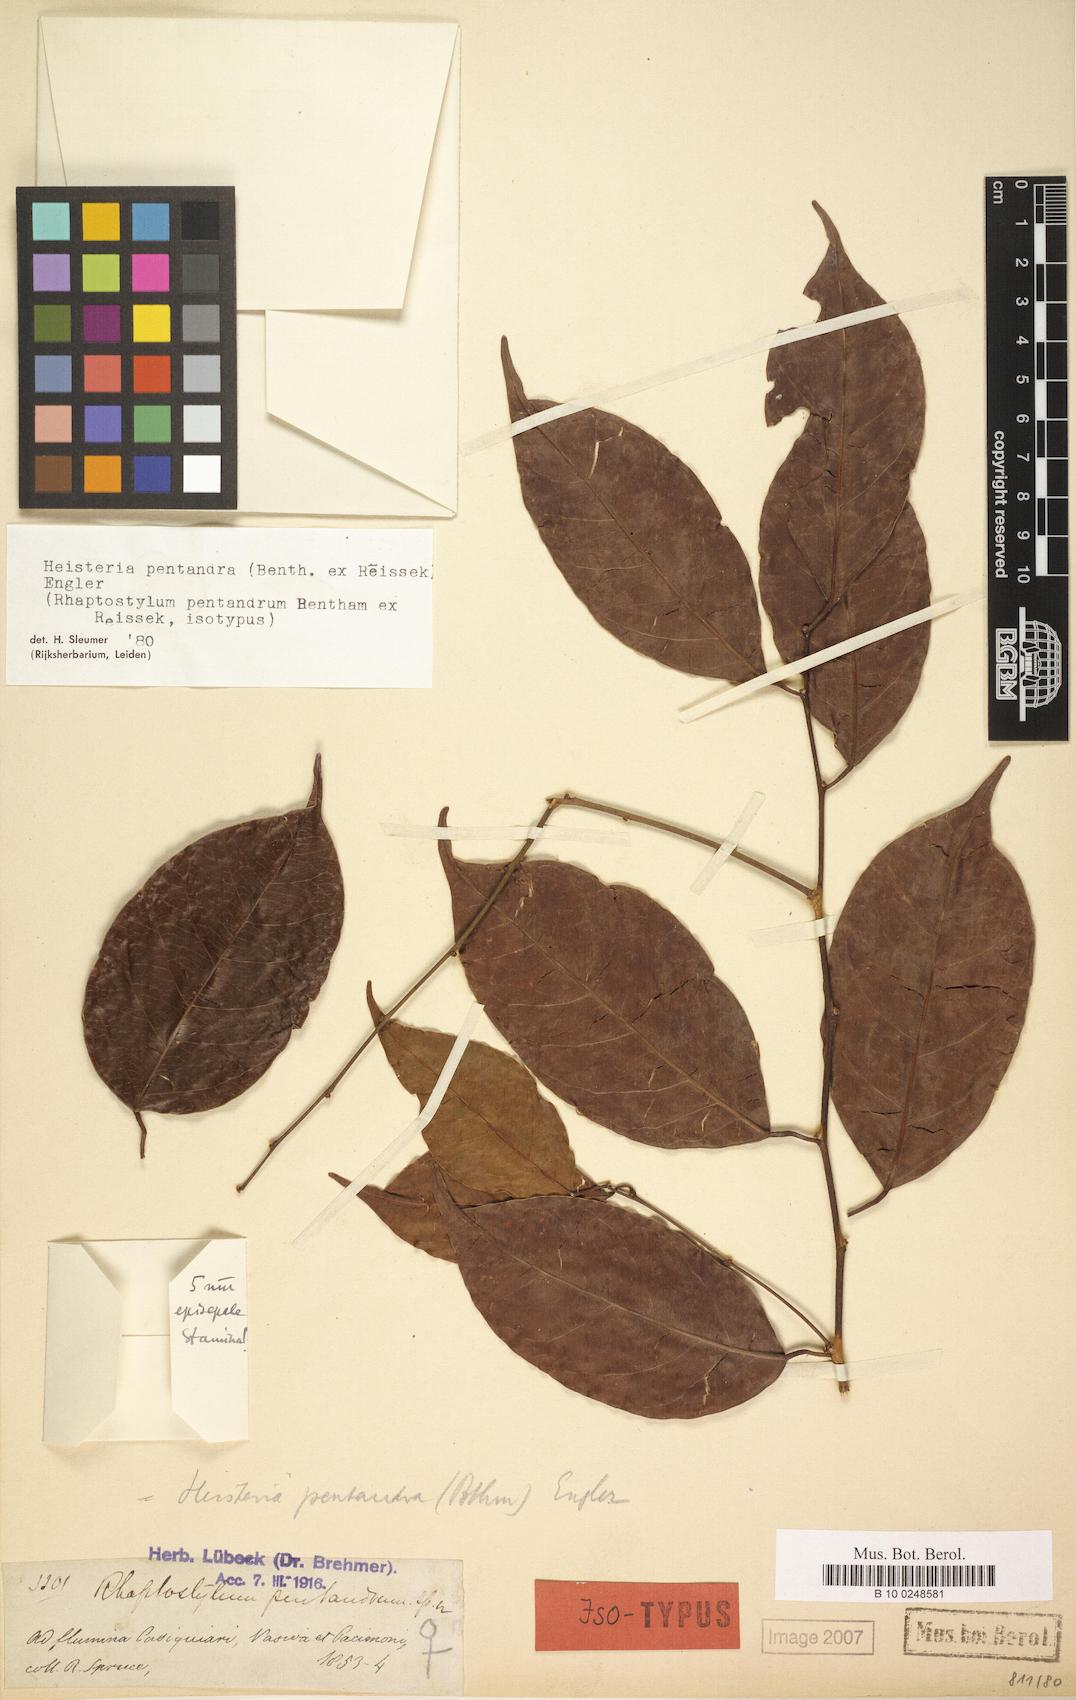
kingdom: Plantae
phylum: Tracheophyta
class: Magnoliopsida
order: Santalales
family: Erythropalaceae
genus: Heisteria
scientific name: Heisteria pentandra
